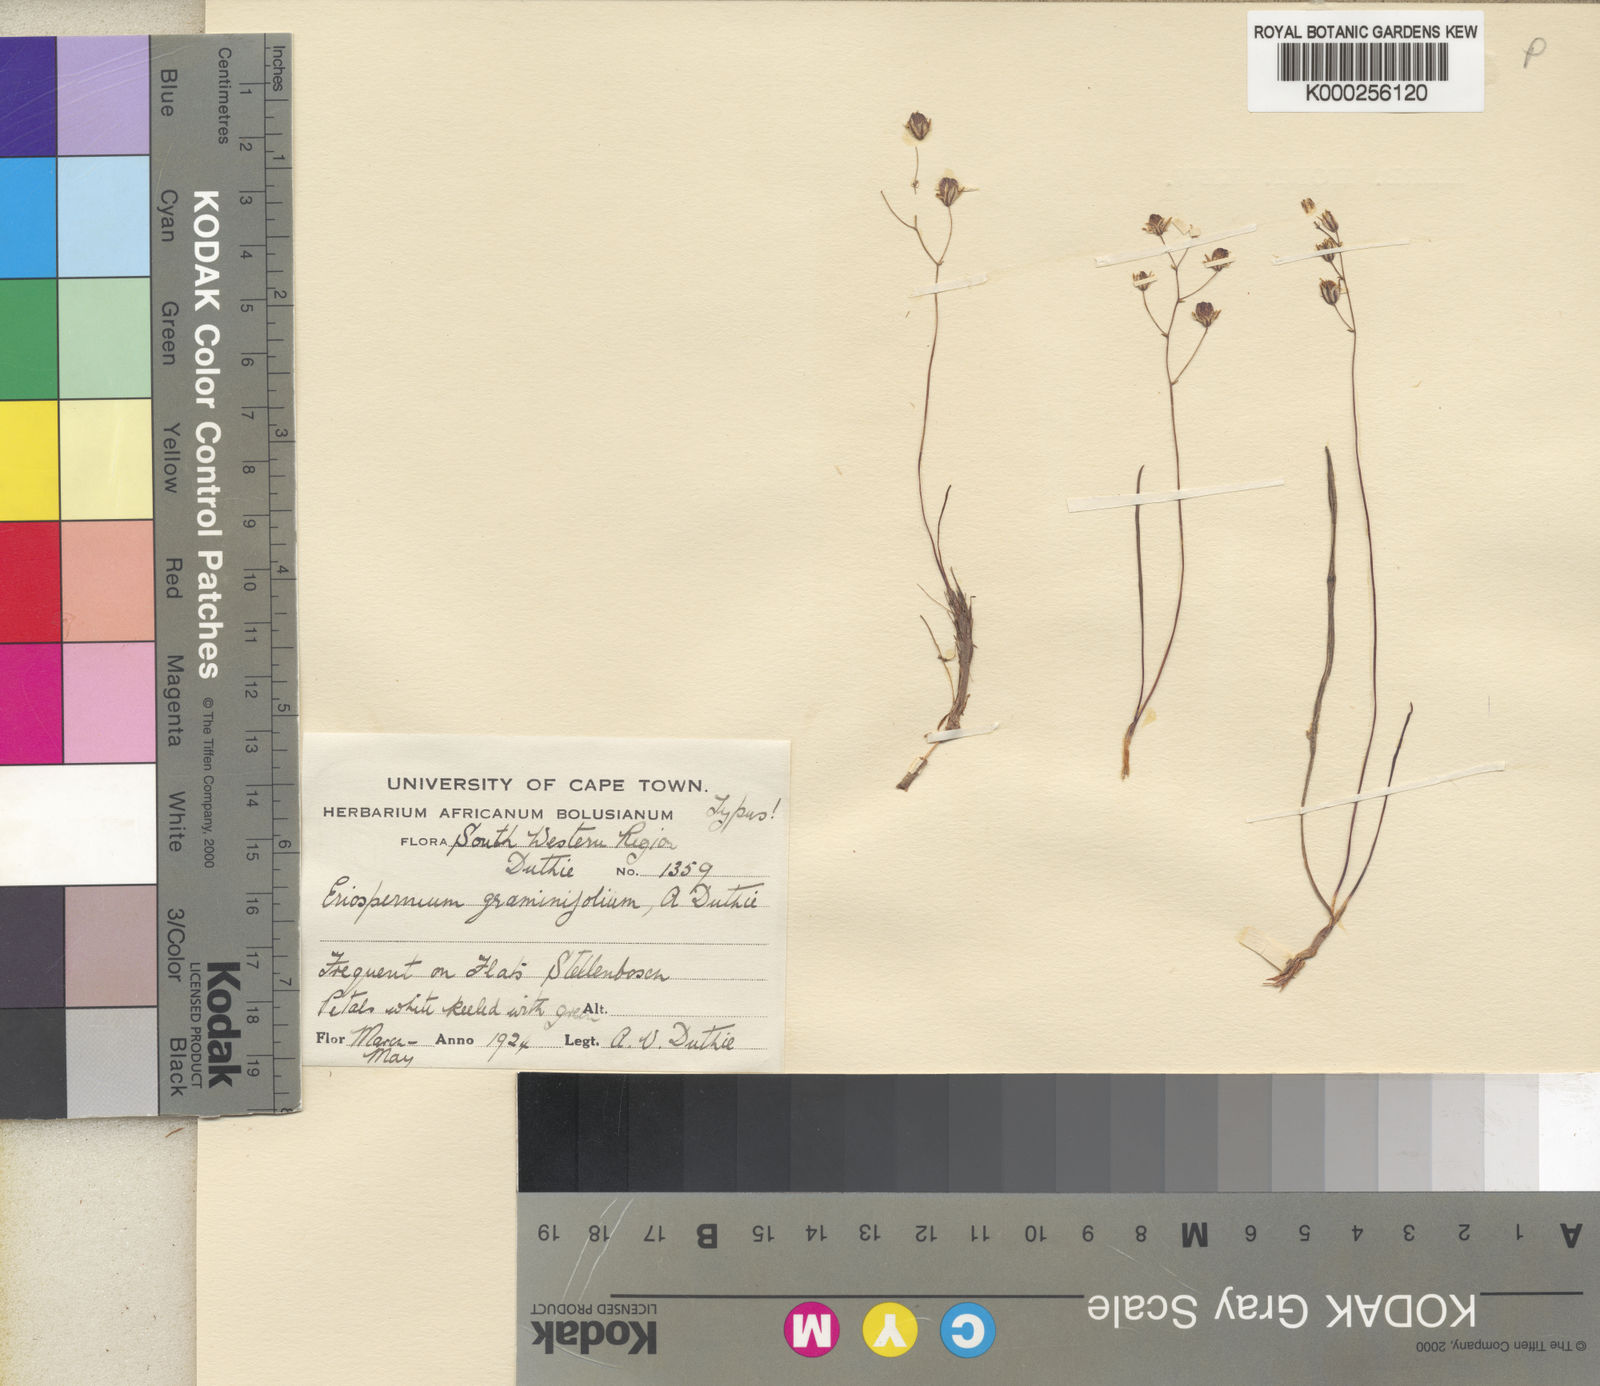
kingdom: Plantae
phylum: Tracheophyta
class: Liliopsida
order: Asparagales
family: Asparagaceae
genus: Eriospermum
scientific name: Eriospermum graminifolium
